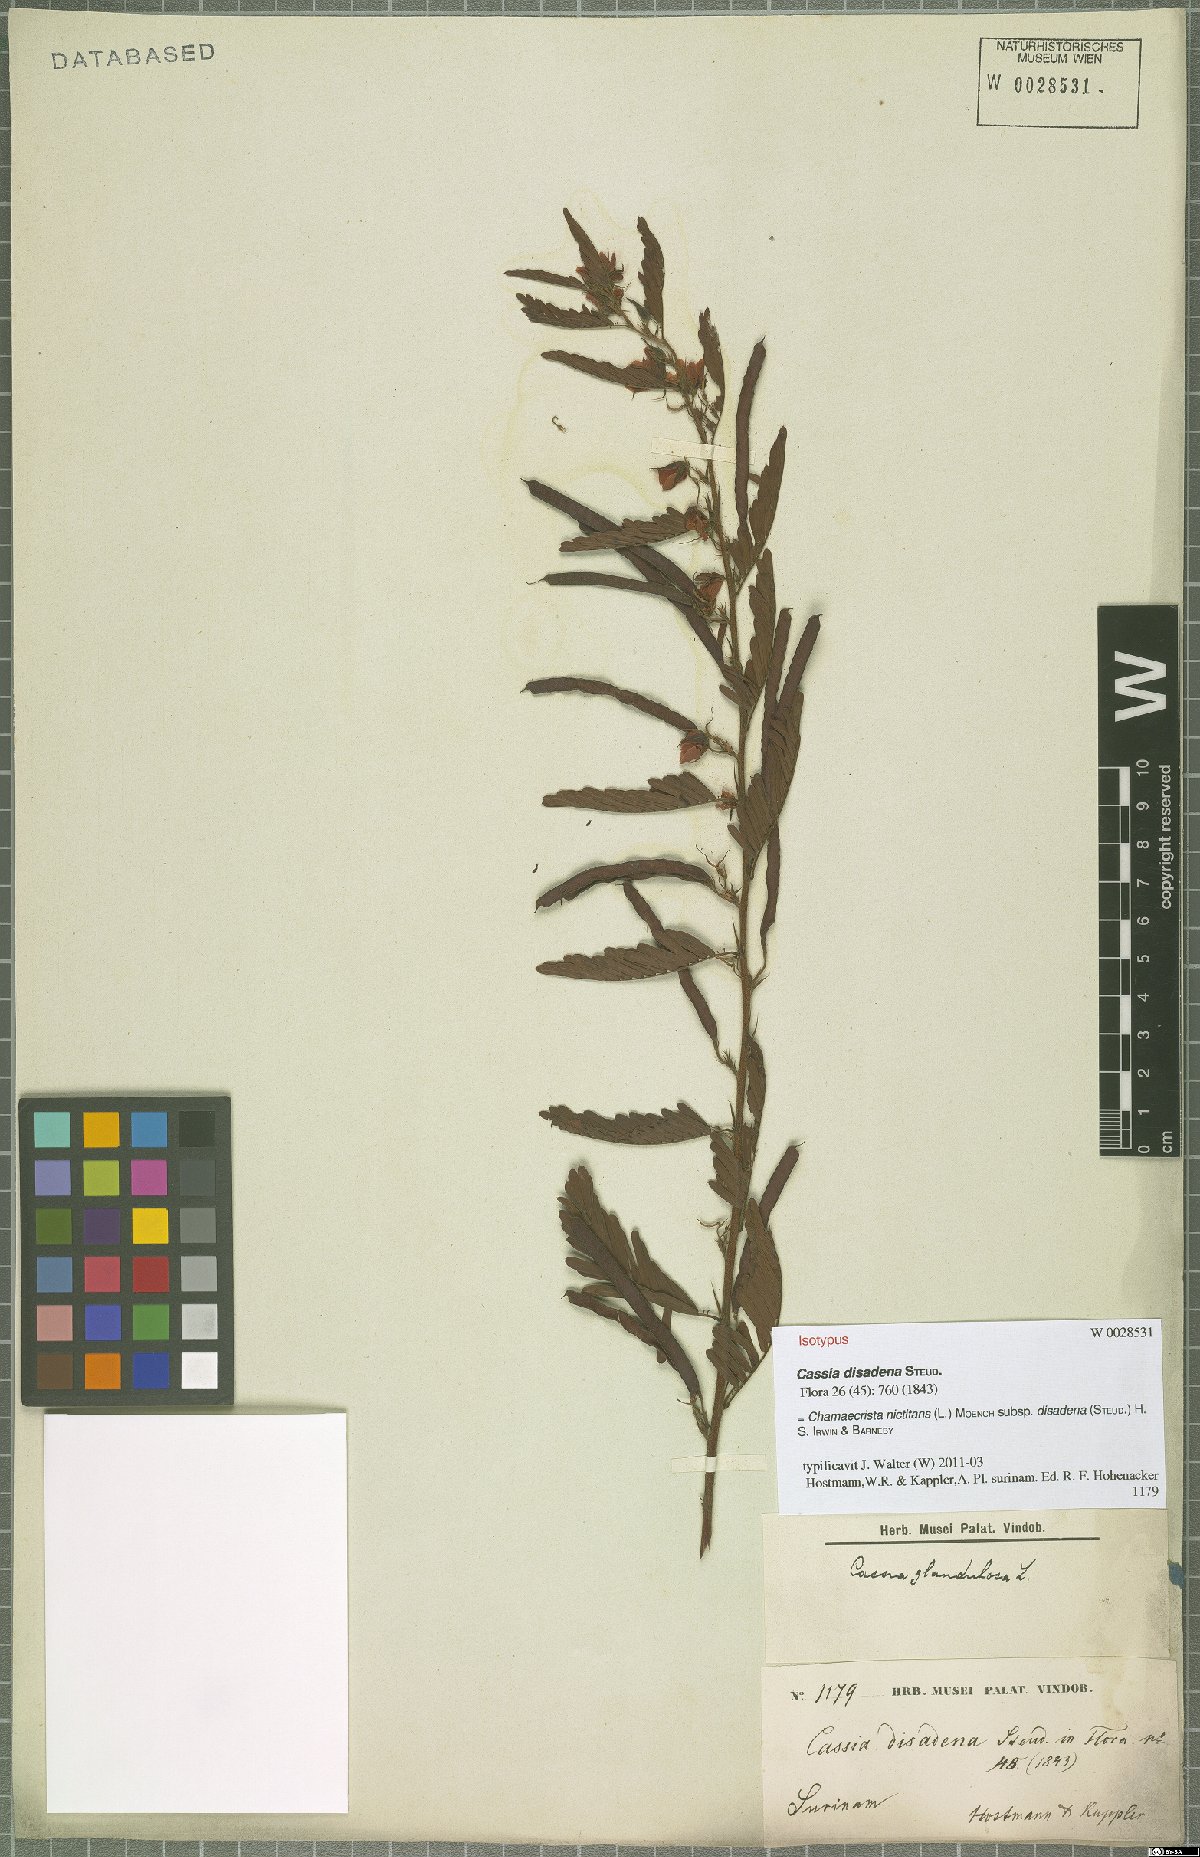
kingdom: Plantae
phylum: Tracheophyta
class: Magnoliopsida
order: Fabales
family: Fabaceae
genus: Chamaecrista
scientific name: Chamaecrista nictitans
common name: Sensitive cassia
